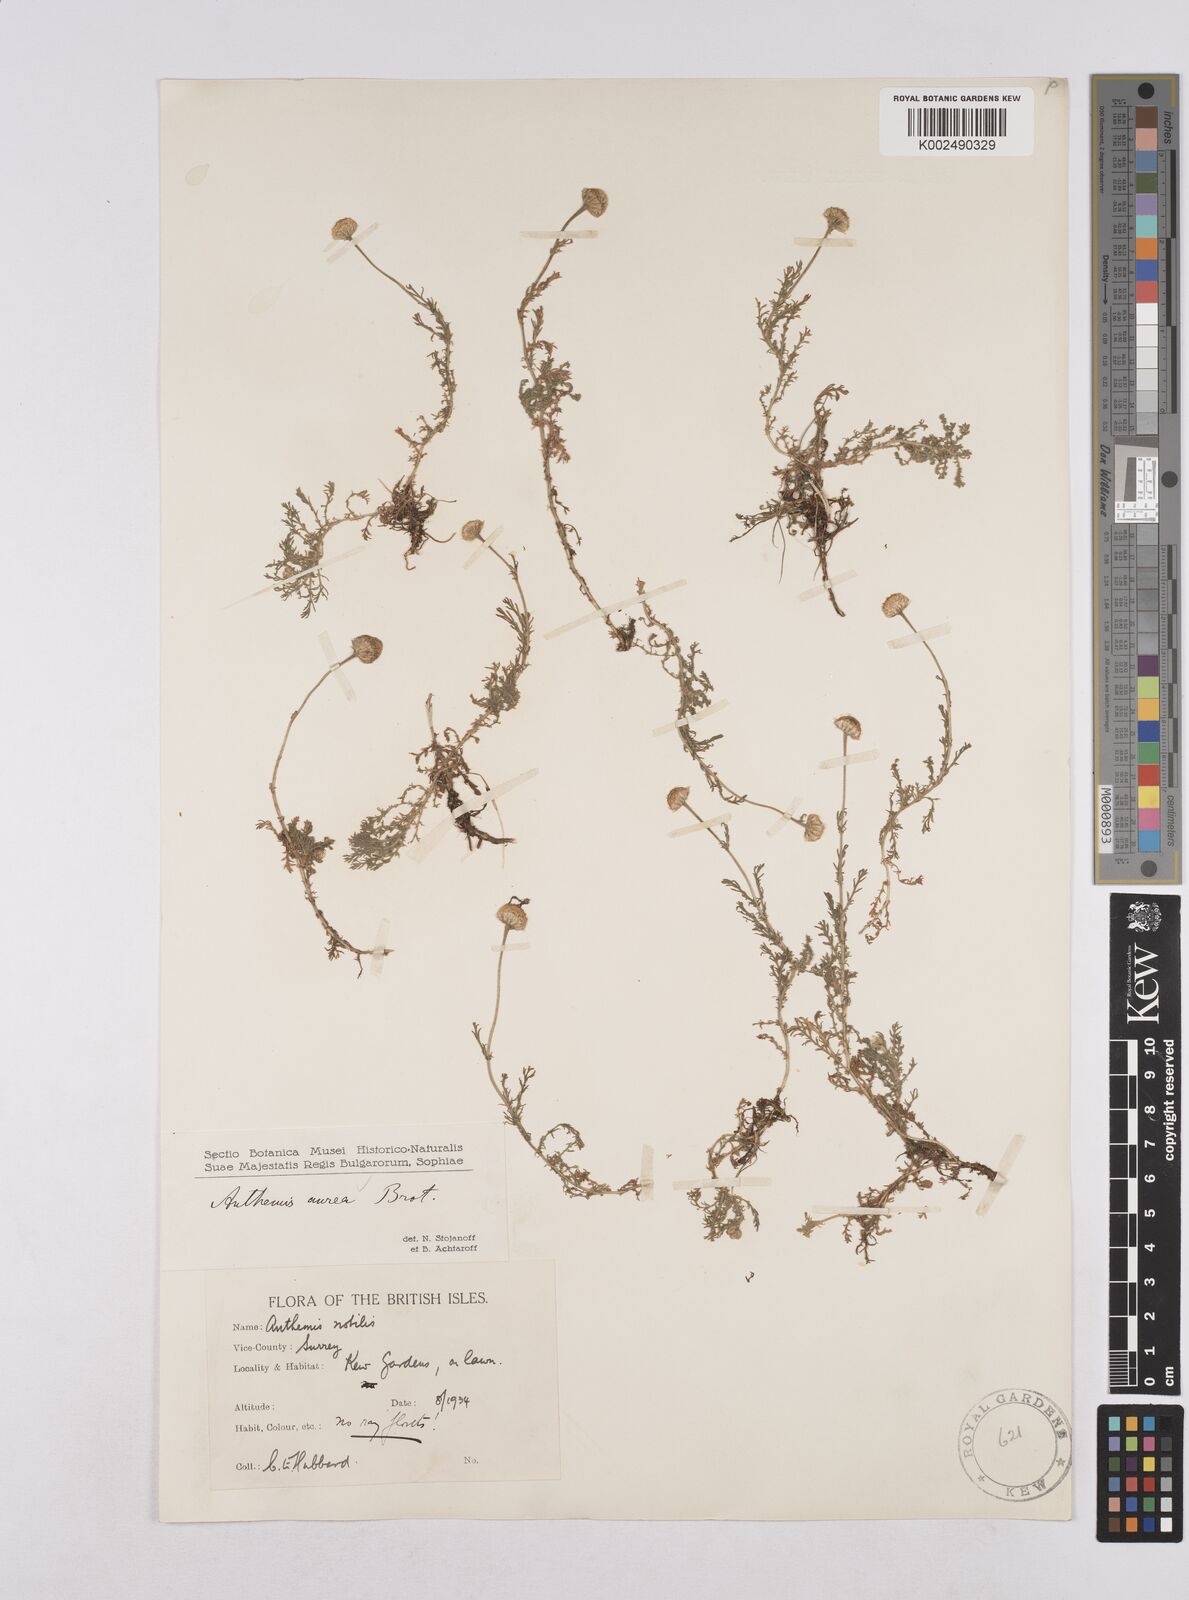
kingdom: Plantae
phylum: Tracheophyta
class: Magnoliopsida
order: Asterales
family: Asteraceae
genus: Matricaria
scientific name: Matricaria chamomilla
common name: Scented mayweed
